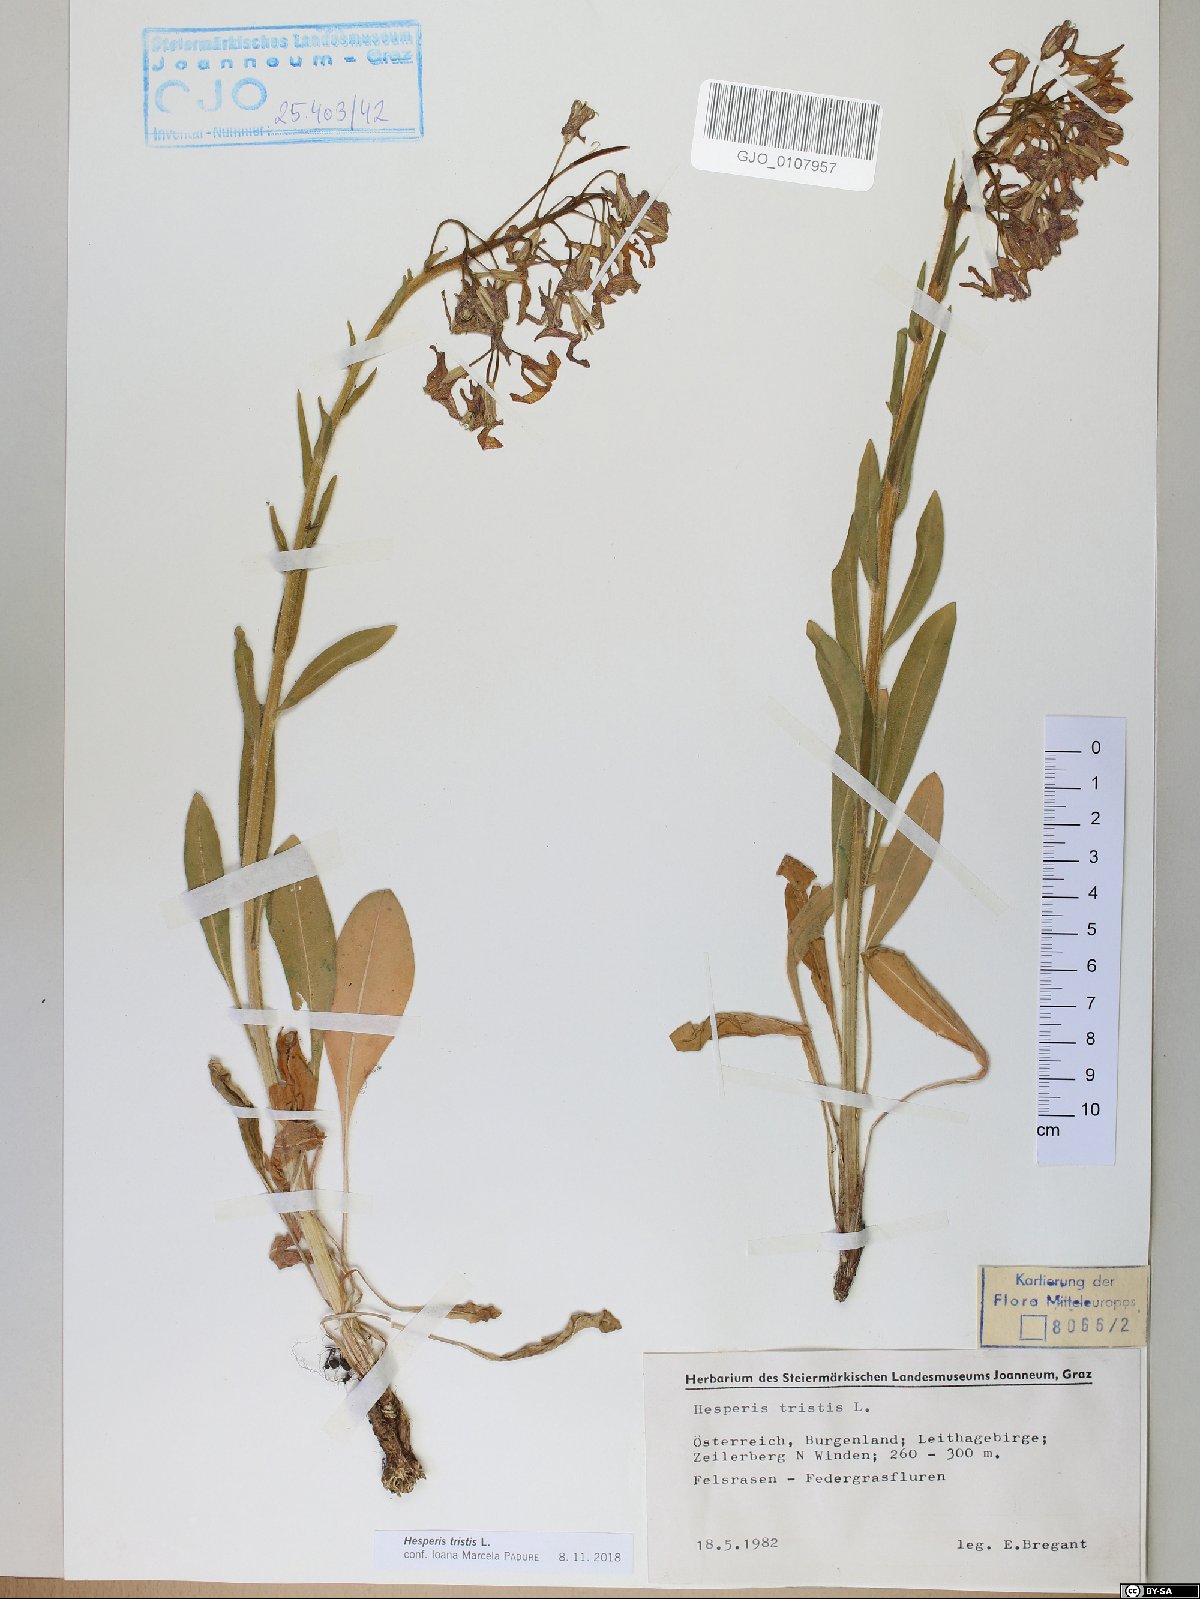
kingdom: Plantae
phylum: Tracheophyta
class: Magnoliopsida
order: Brassicales
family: Brassicaceae
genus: Hesperis
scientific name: Hesperis tristis
